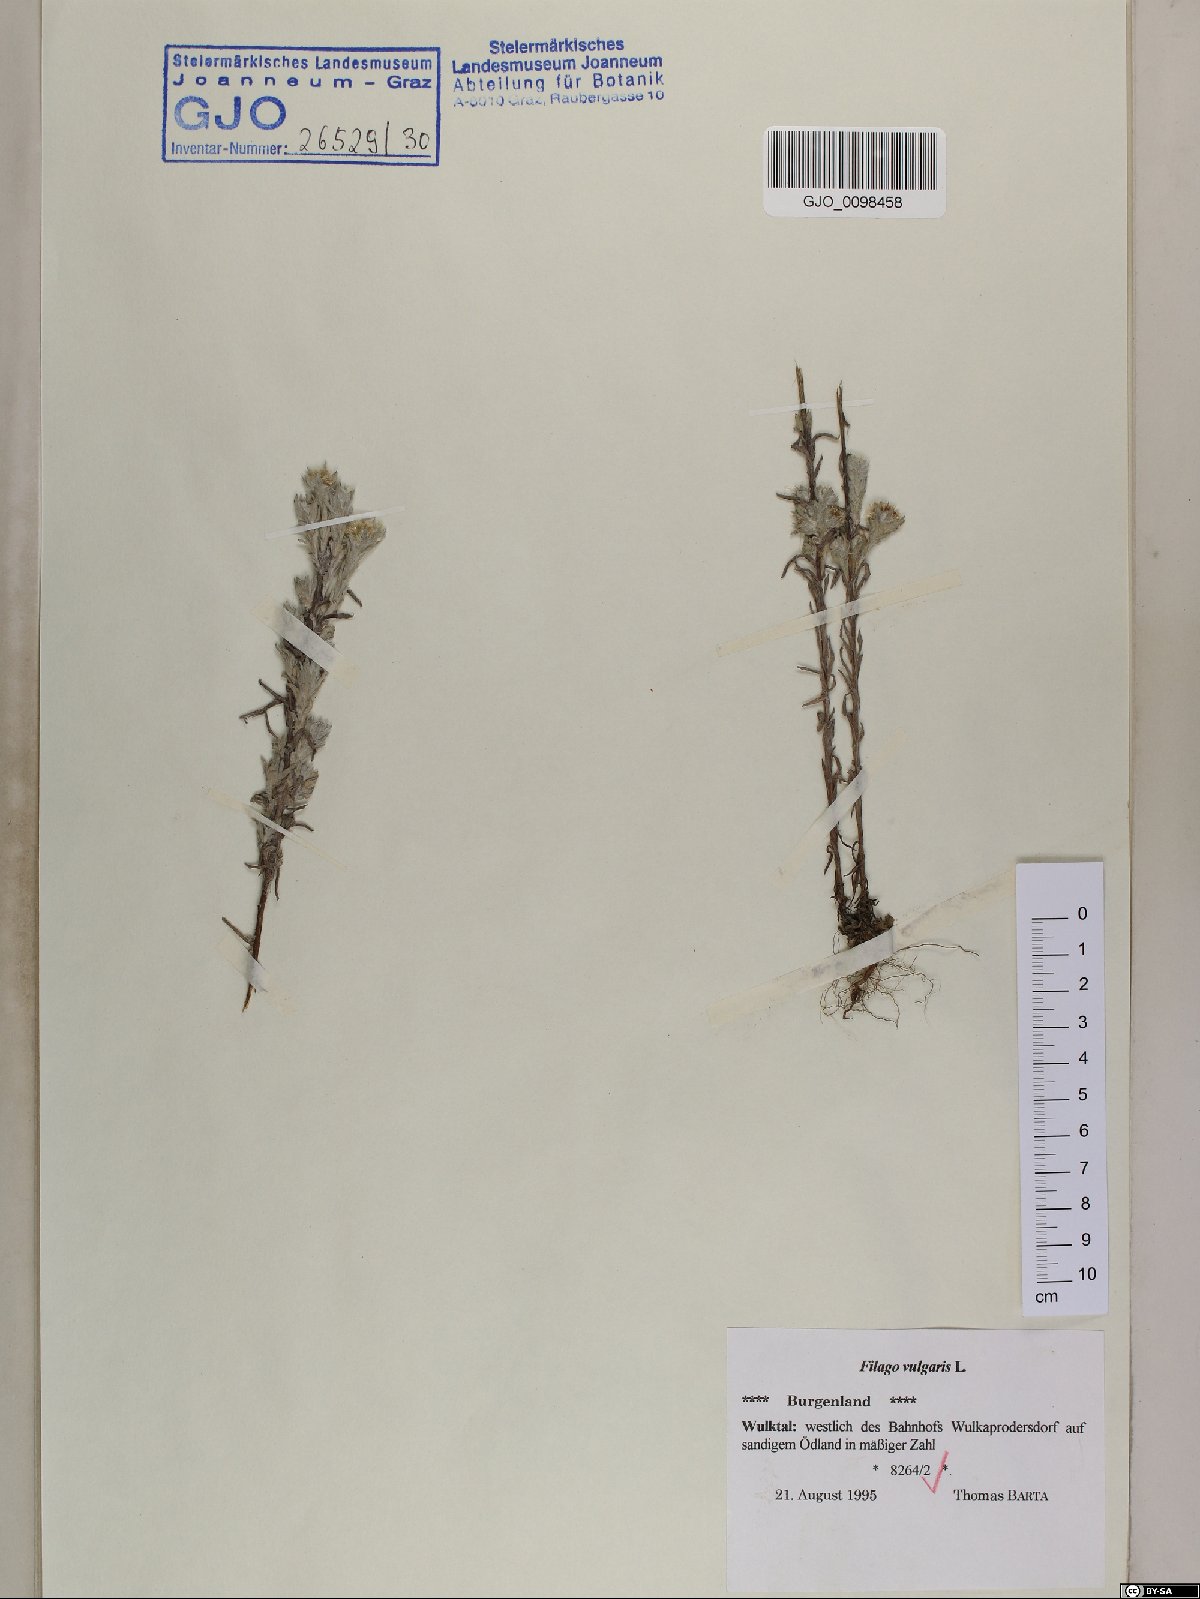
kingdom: Plantae
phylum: Tracheophyta
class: Magnoliopsida
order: Asterales
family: Asteraceae
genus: Filago
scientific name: Filago germanica
